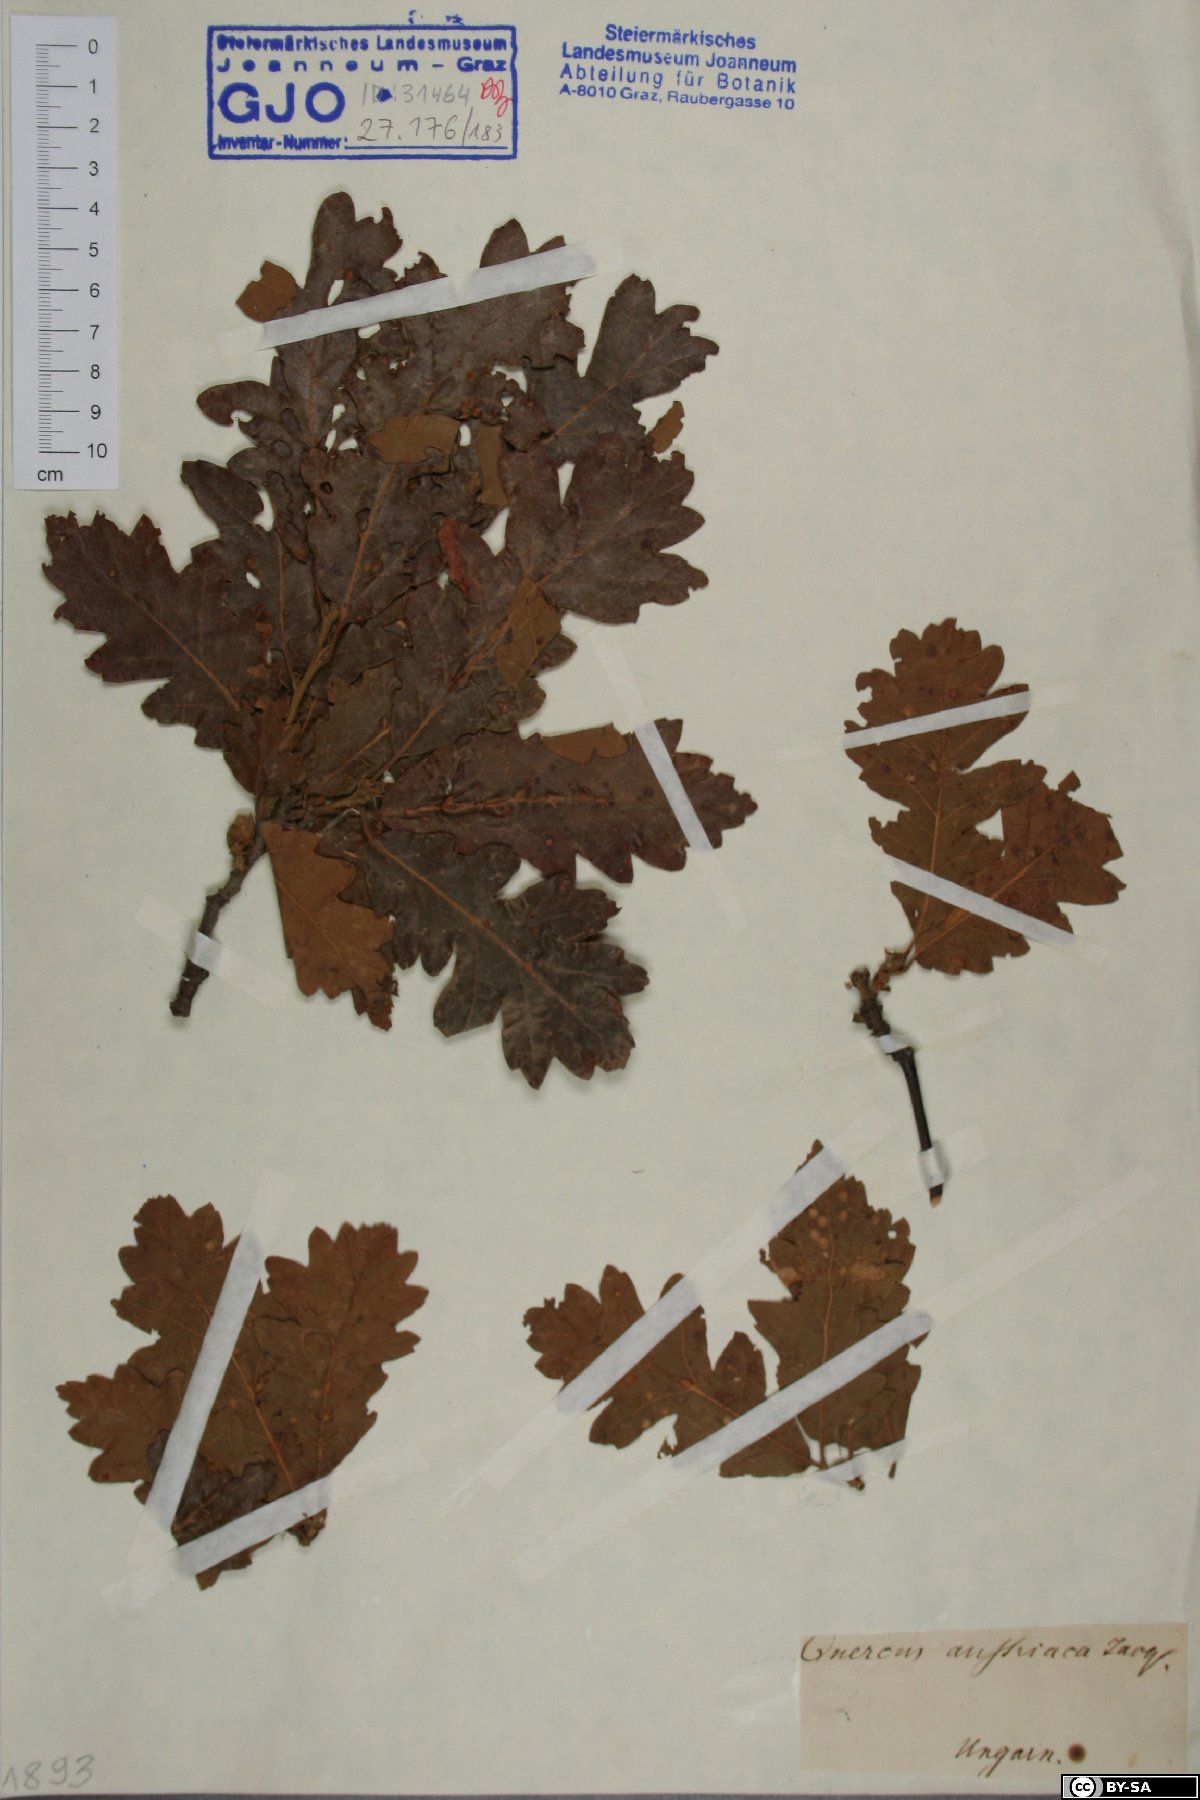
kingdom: Plantae
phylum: Tracheophyta
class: Magnoliopsida
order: Fagales
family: Fagaceae
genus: Quercus
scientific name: Quercus cerris
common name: Turkey oak
